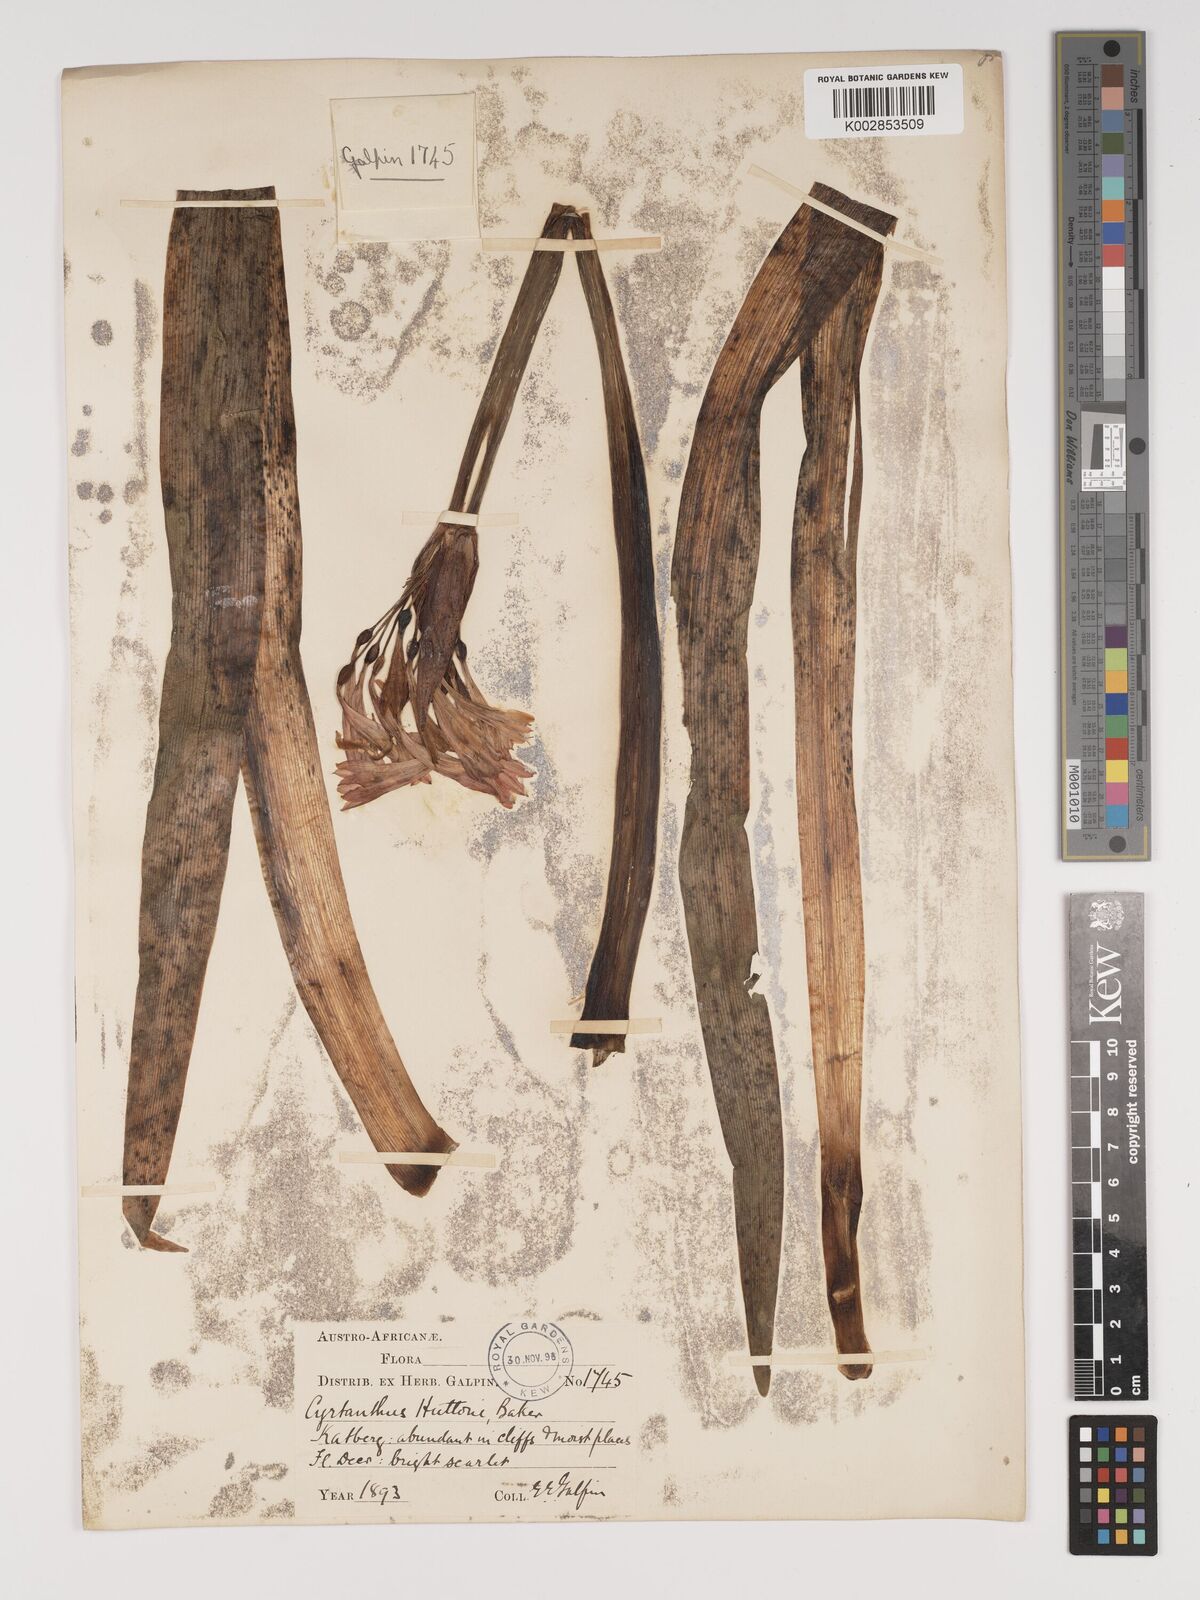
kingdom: Plantae
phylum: Tracheophyta
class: Liliopsida
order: Asparagales
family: Amaryllidaceae
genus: Cyrtanthus
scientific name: Cyrtanthus huttonii
